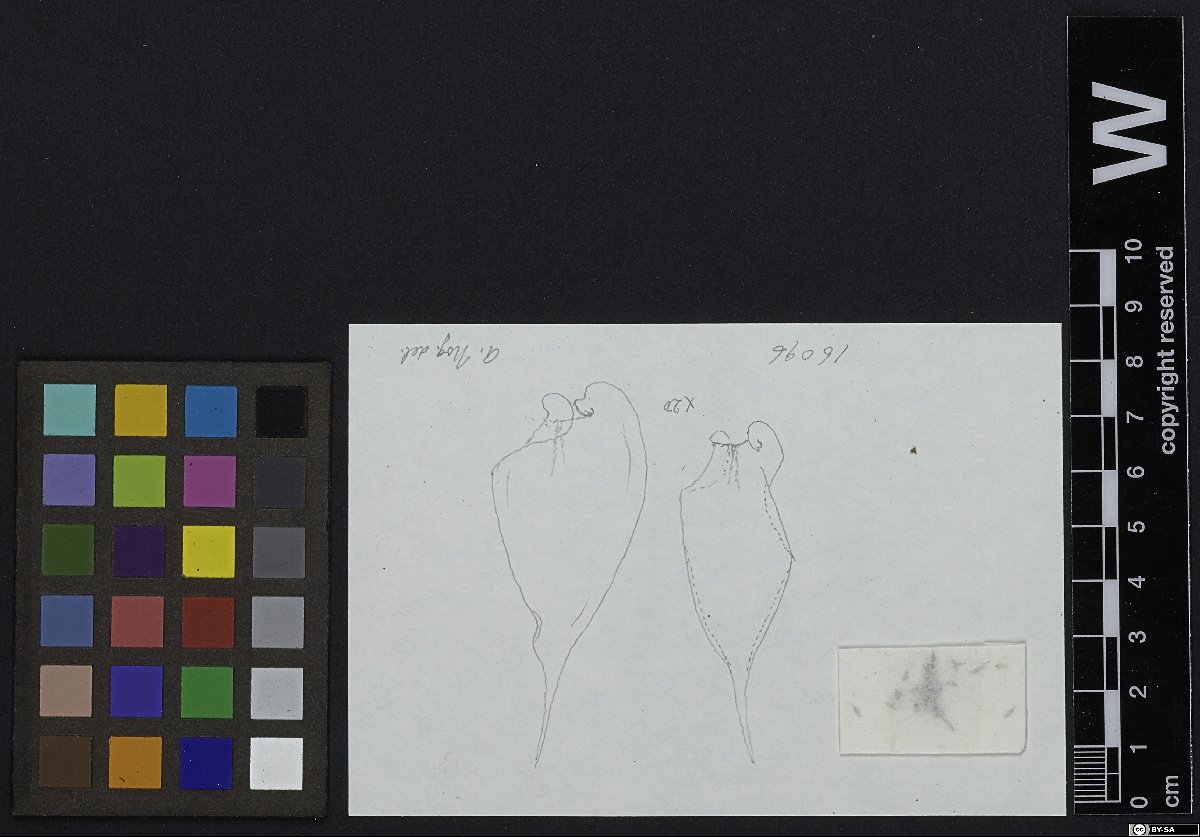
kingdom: Plantae
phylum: Bryophyta
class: Bryopsida
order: Hypnales
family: Pterobryaceae
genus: Pterobryopsis
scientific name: Pterobryopsis
